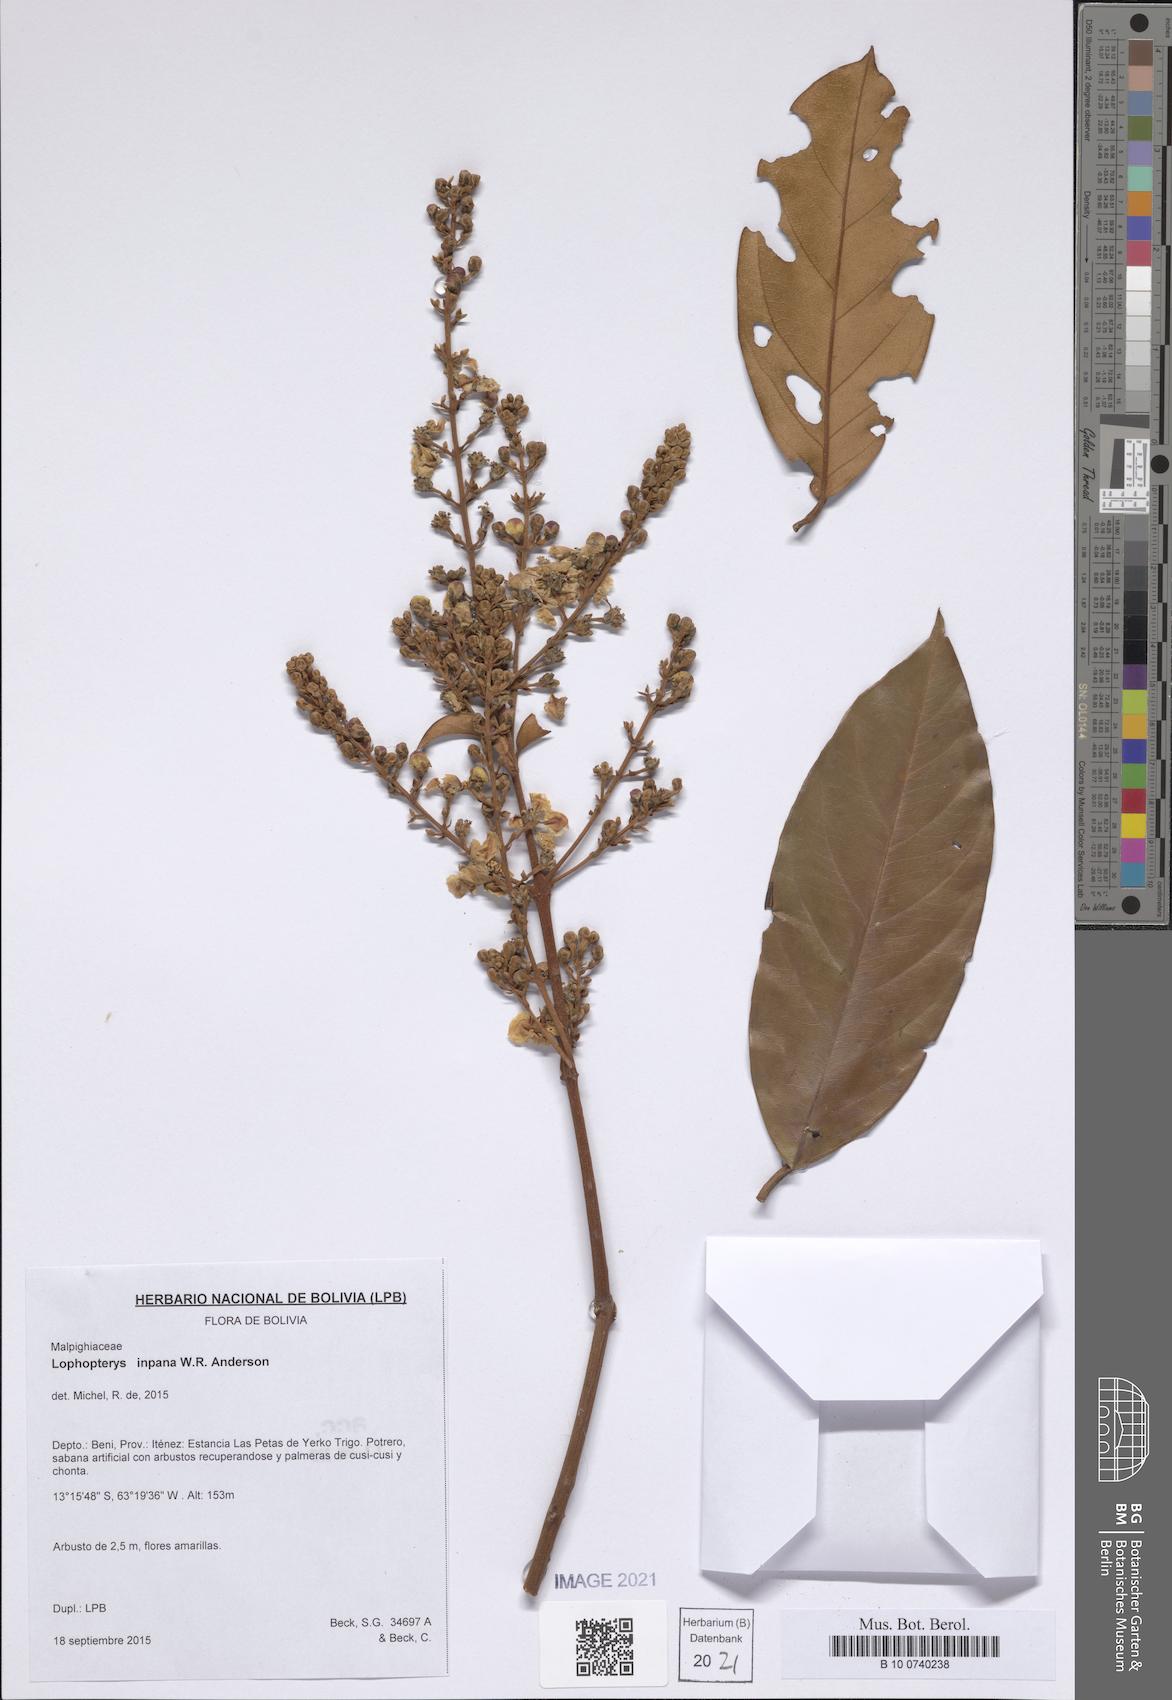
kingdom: Plantae
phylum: Tracheophyta
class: Magnoliopsida
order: Malpighiales
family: Malpighiaceae
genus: Lophopterys
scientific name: Lophopterys inpana
